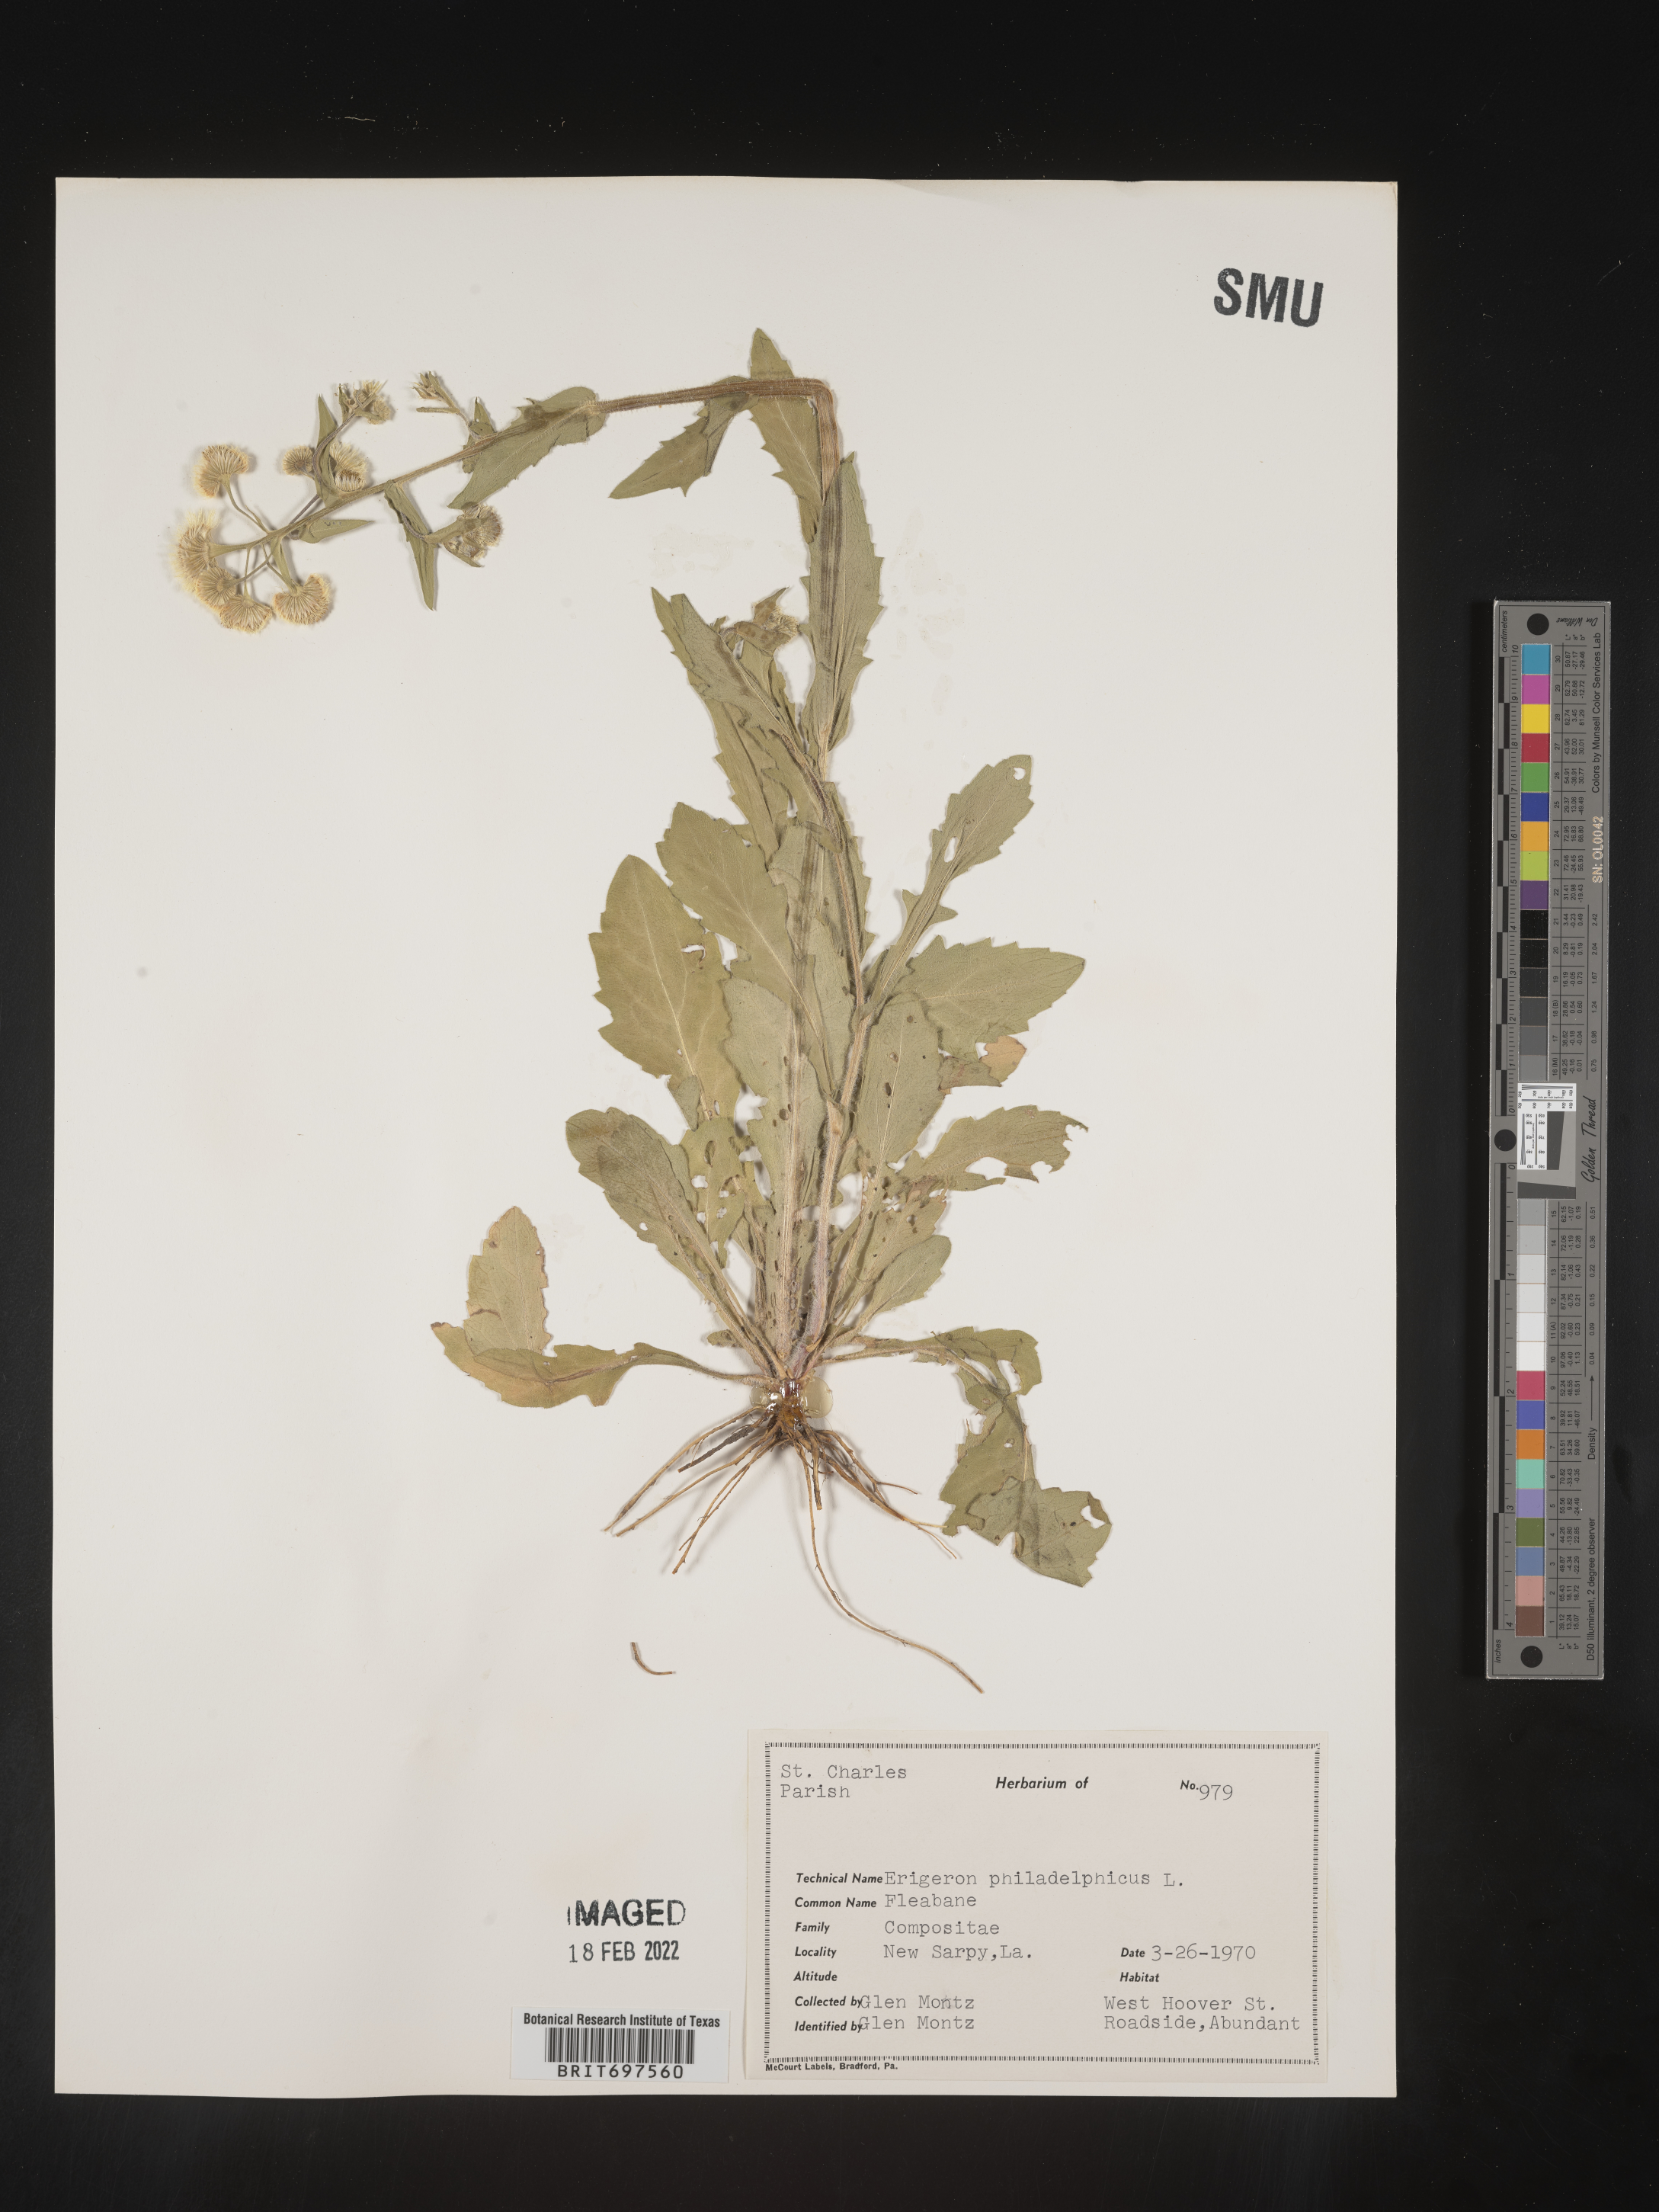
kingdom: Plantae
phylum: Tracheophyta
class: Magnoliopsida
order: Asterales
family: Asteraceae
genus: Erigeron
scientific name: Erigeron philadelphicus
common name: Robin's-plantain
